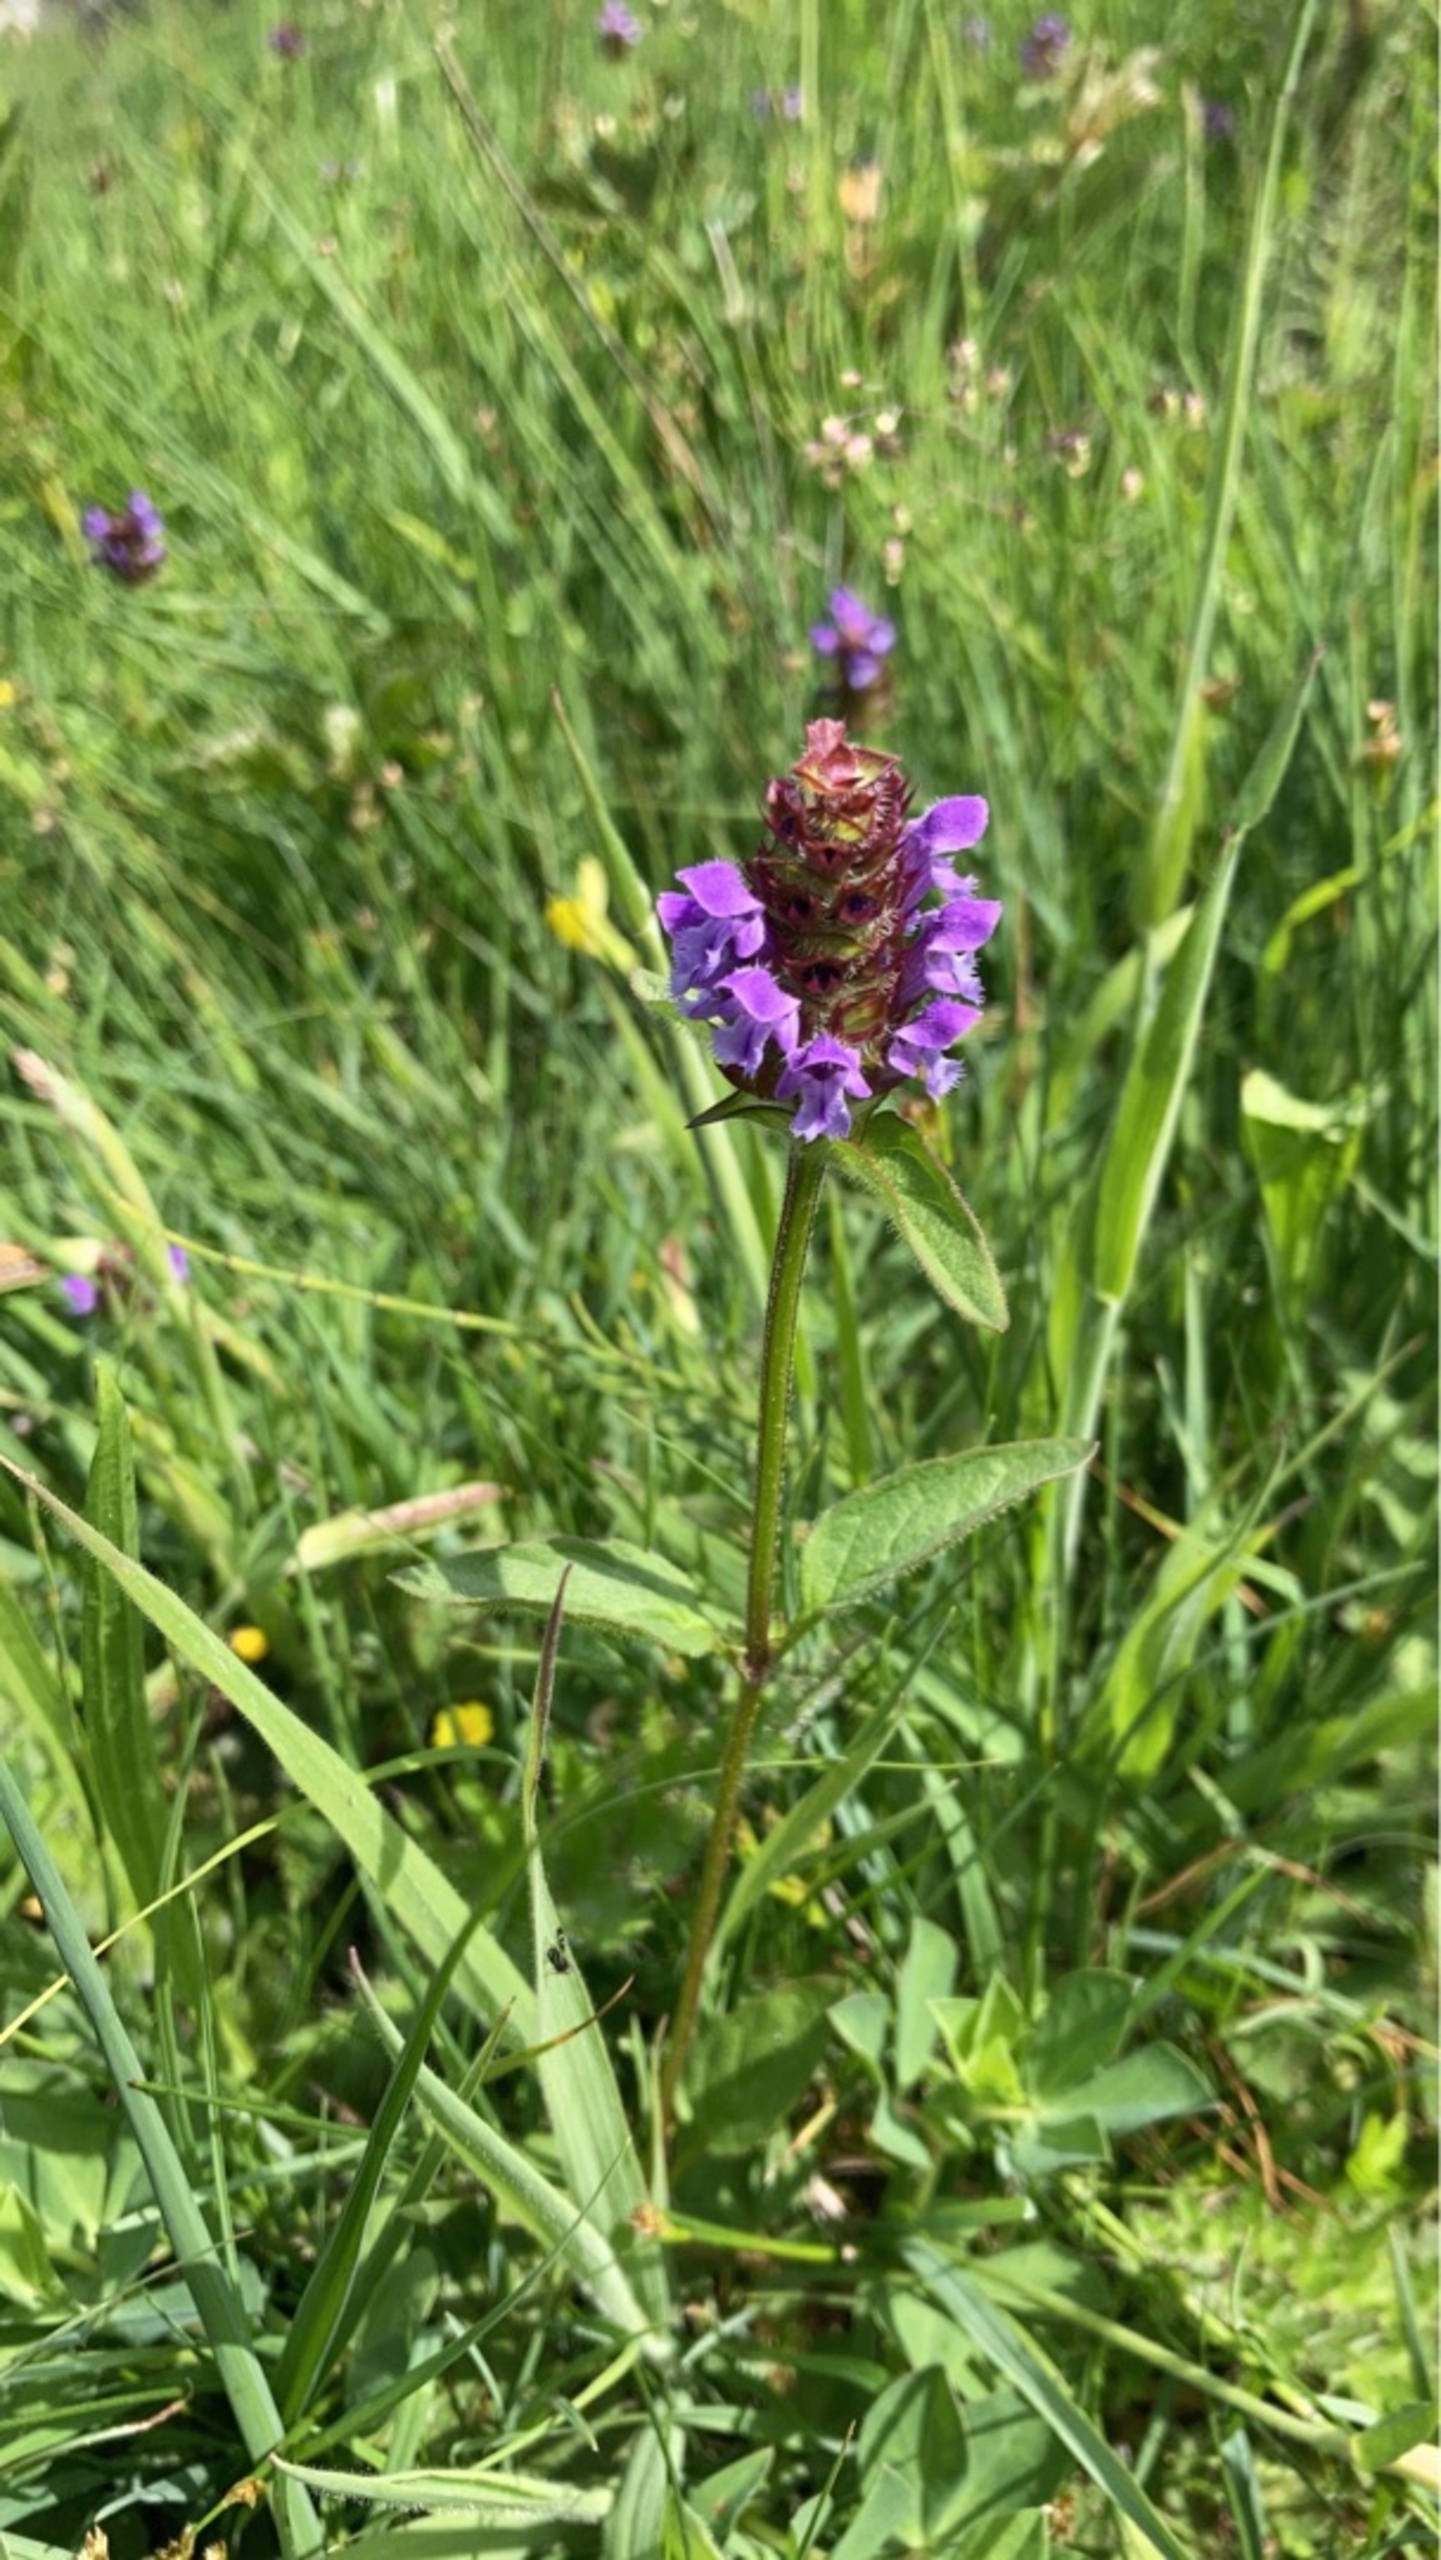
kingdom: Plantae
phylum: Tracheophyta
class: Magnoliopsida
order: Lamiales
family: Lamiaceae
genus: Prunella
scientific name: Prunella vulgaris
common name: Almindelig brunelle
